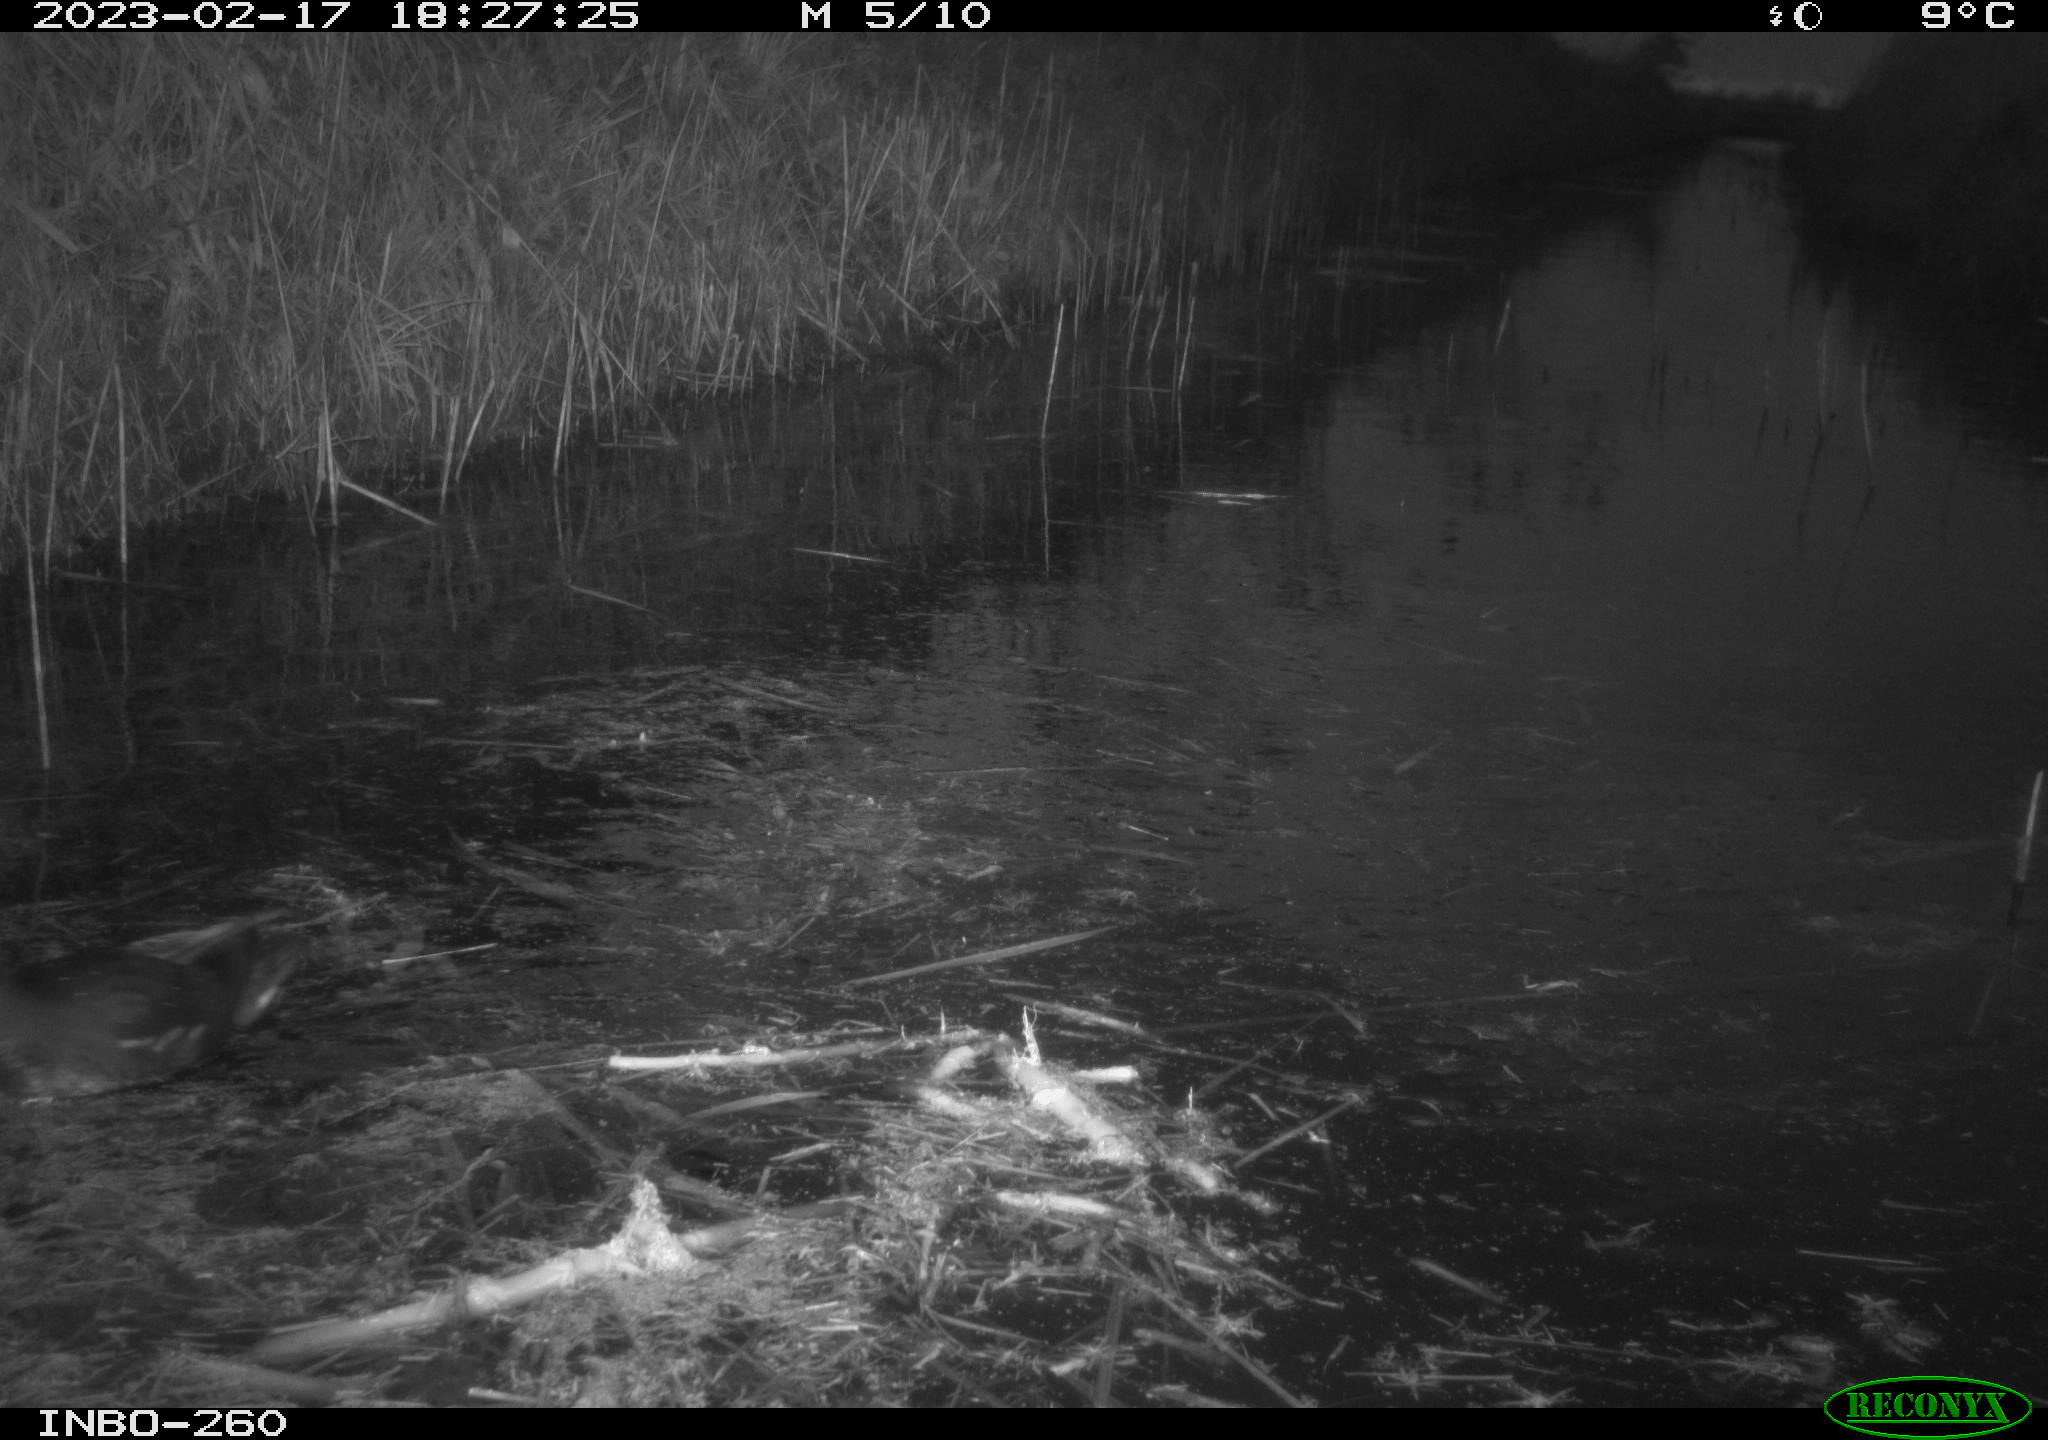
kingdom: Animalia
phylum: Chordata
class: Aves
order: Gruiformes
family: Rallidae
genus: Gallinula
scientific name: Gallinula chloropus
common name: Common moorhen
